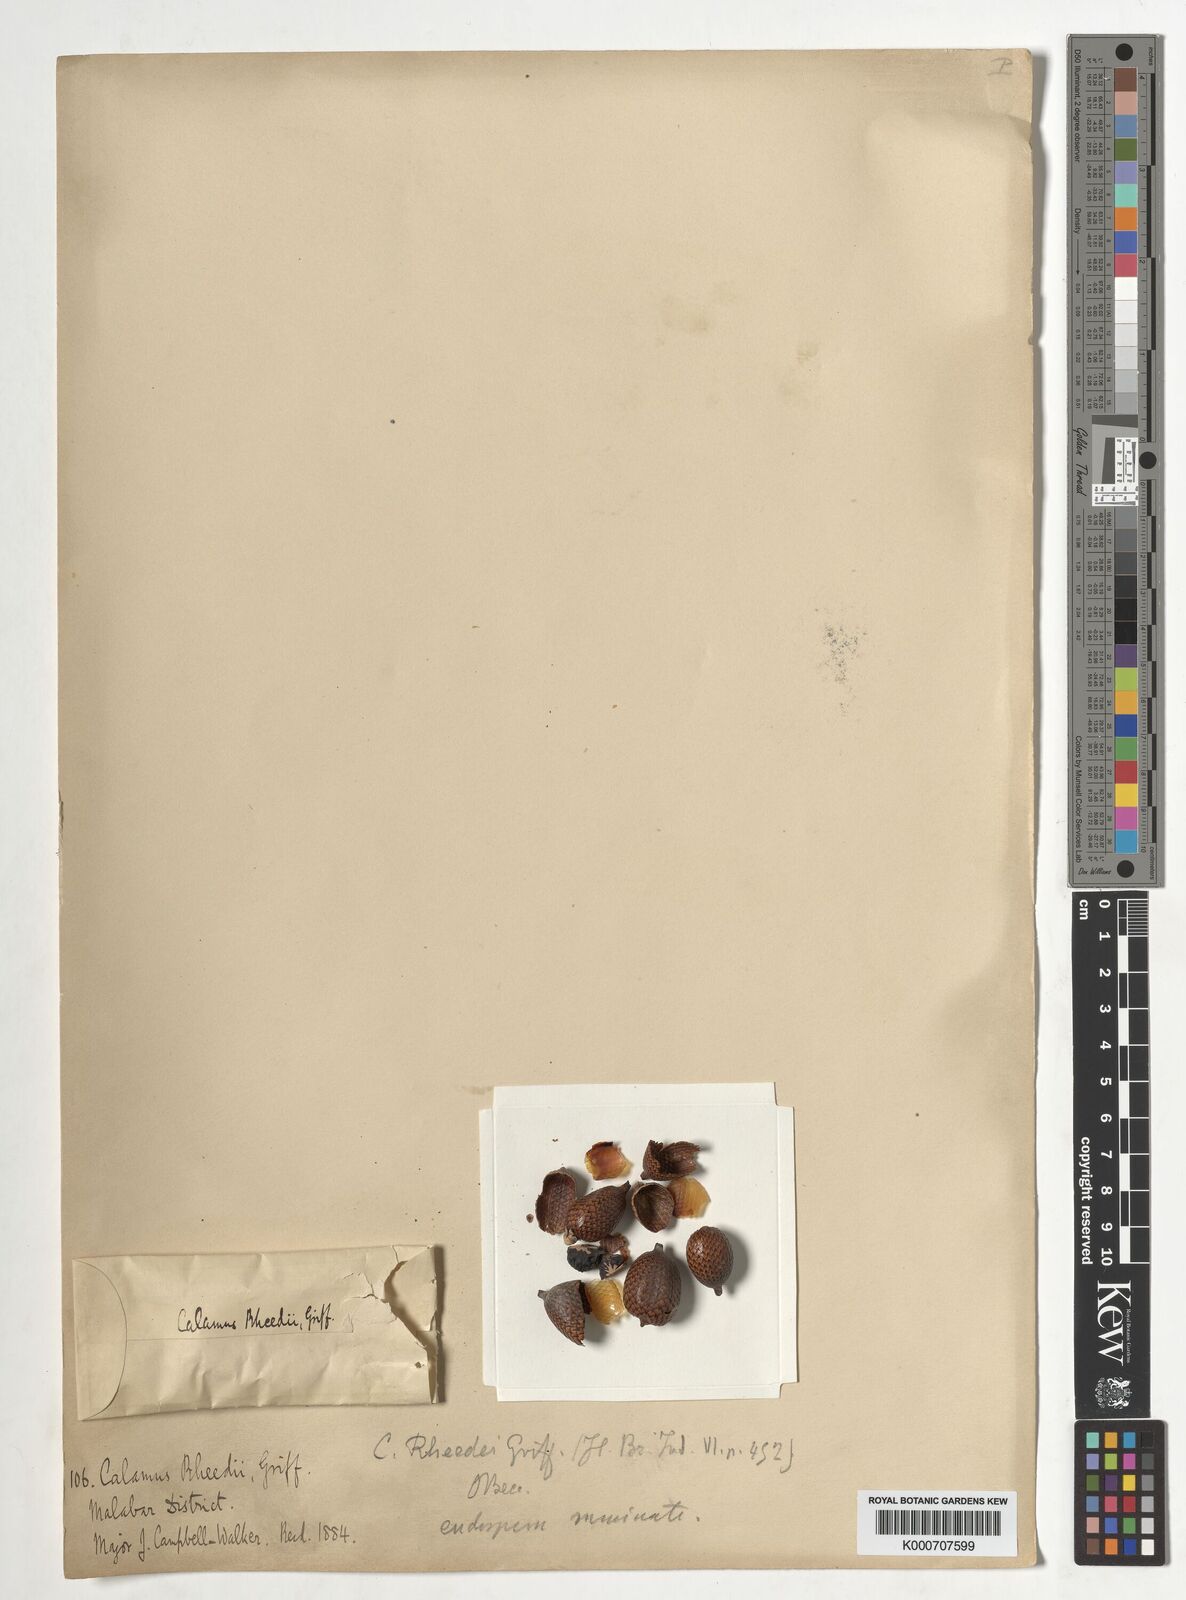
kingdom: Plantae
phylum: Tracheophyta
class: Liliopsida
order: Arecales
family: Arecaceae
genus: Calamus
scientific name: Calamus rheedei
